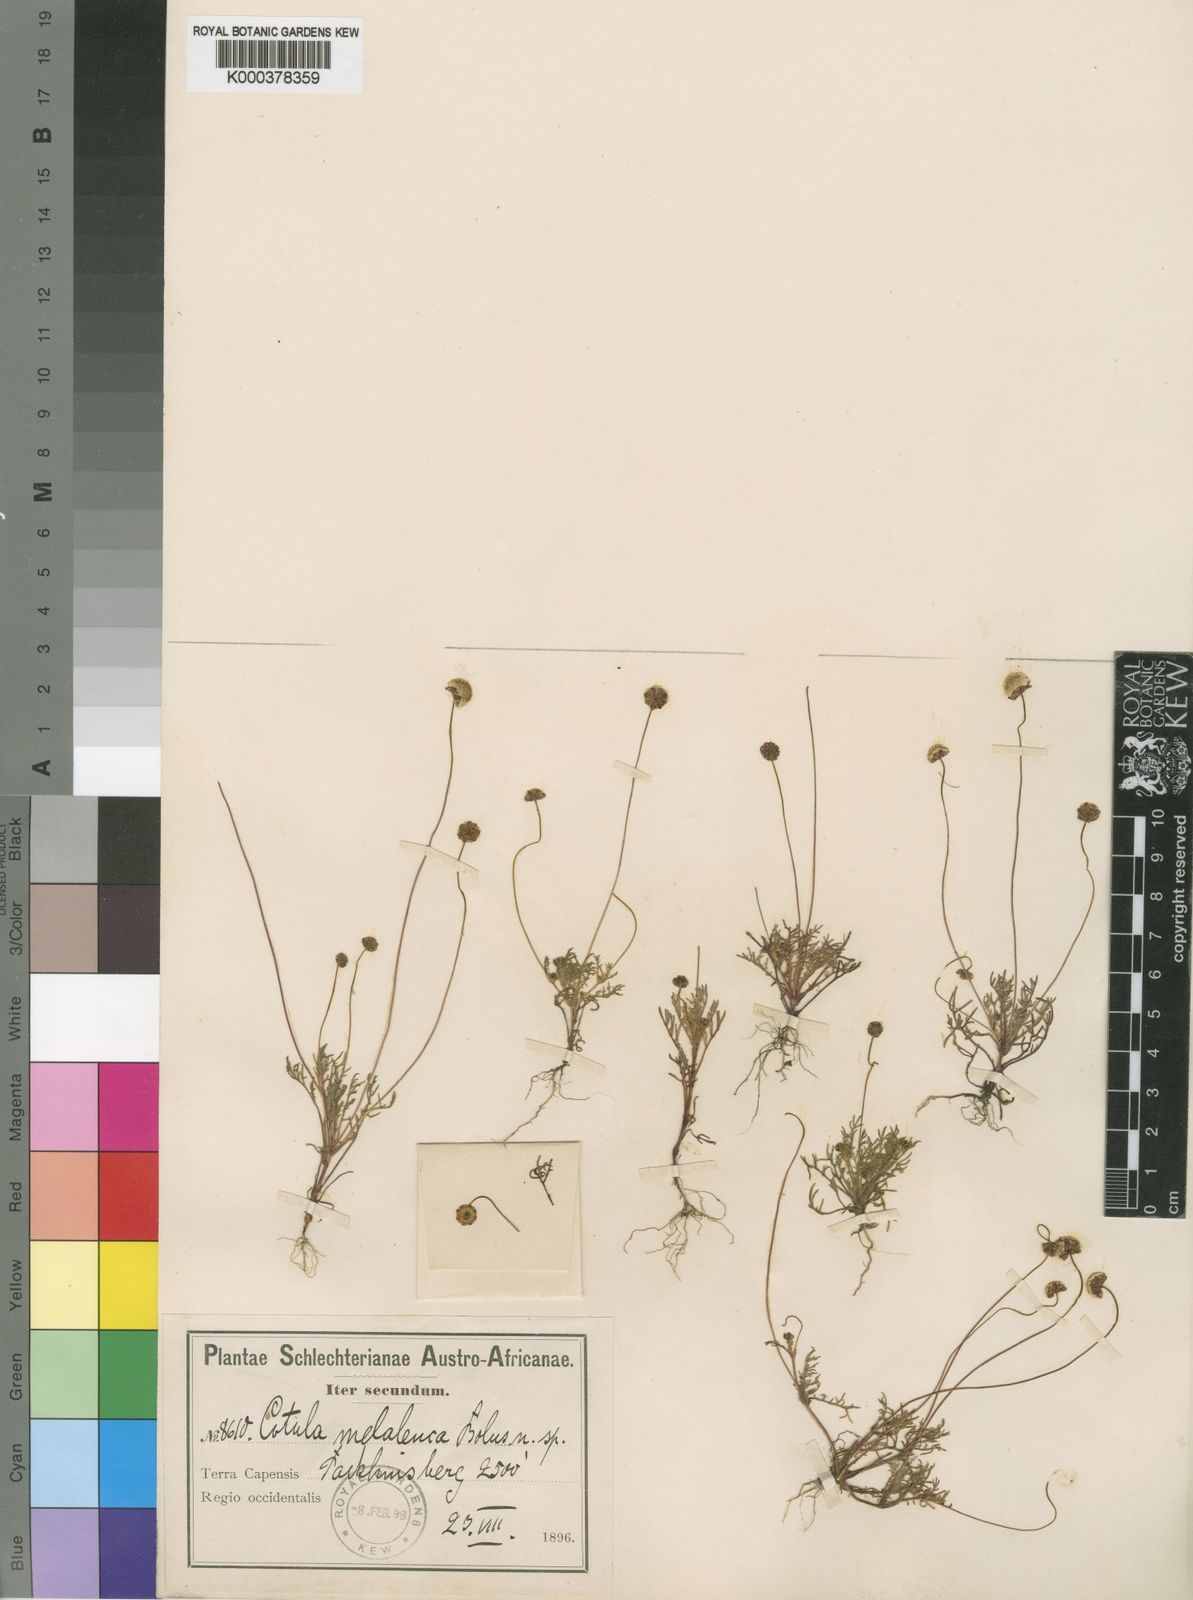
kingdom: Plantae
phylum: Tracheophyta
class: Magnoliopsida
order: Asterales
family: Asteraceae
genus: Cotula
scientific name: Cotula
